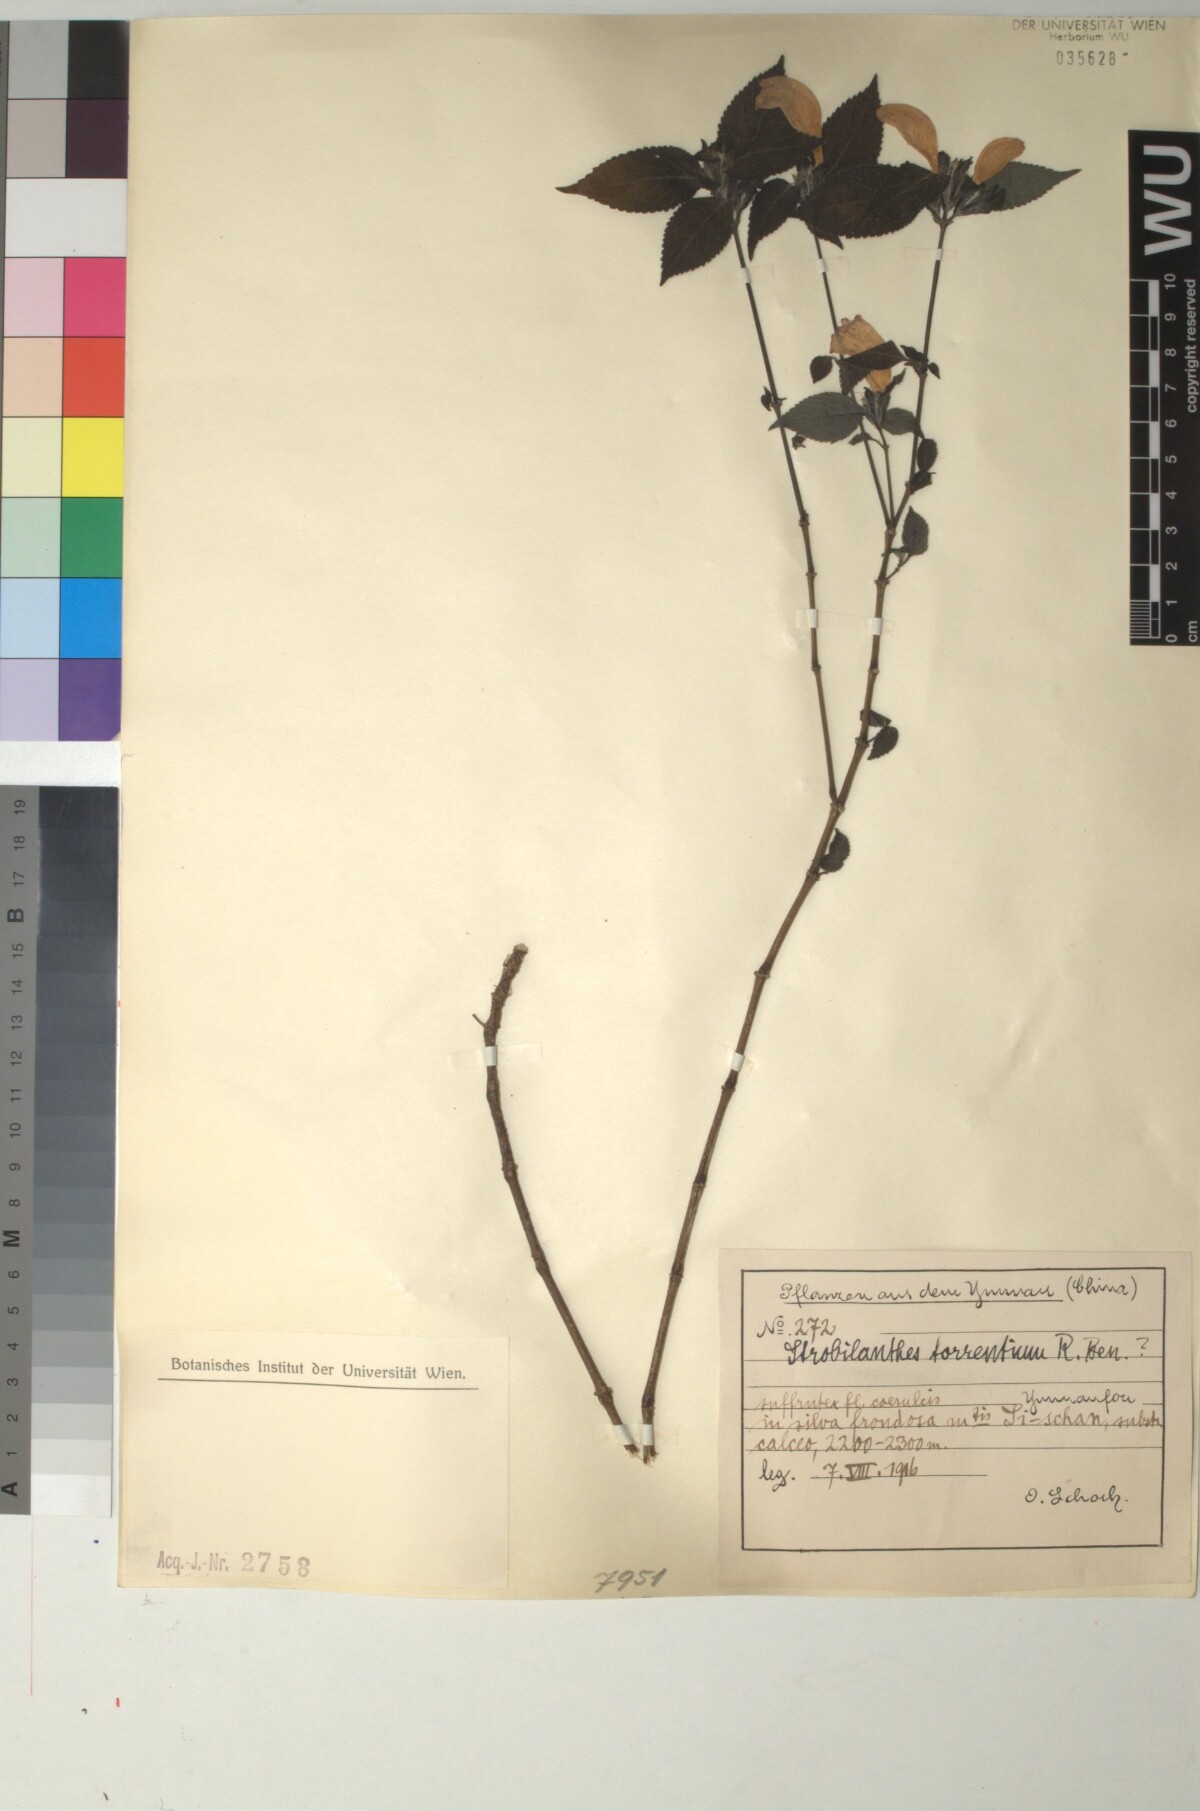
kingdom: Plantae
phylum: Tracheophyta
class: Magnoliopsida
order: Lamiales
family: Acanthaceae
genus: Strobilanthes
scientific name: Strobilanthes torrentium
